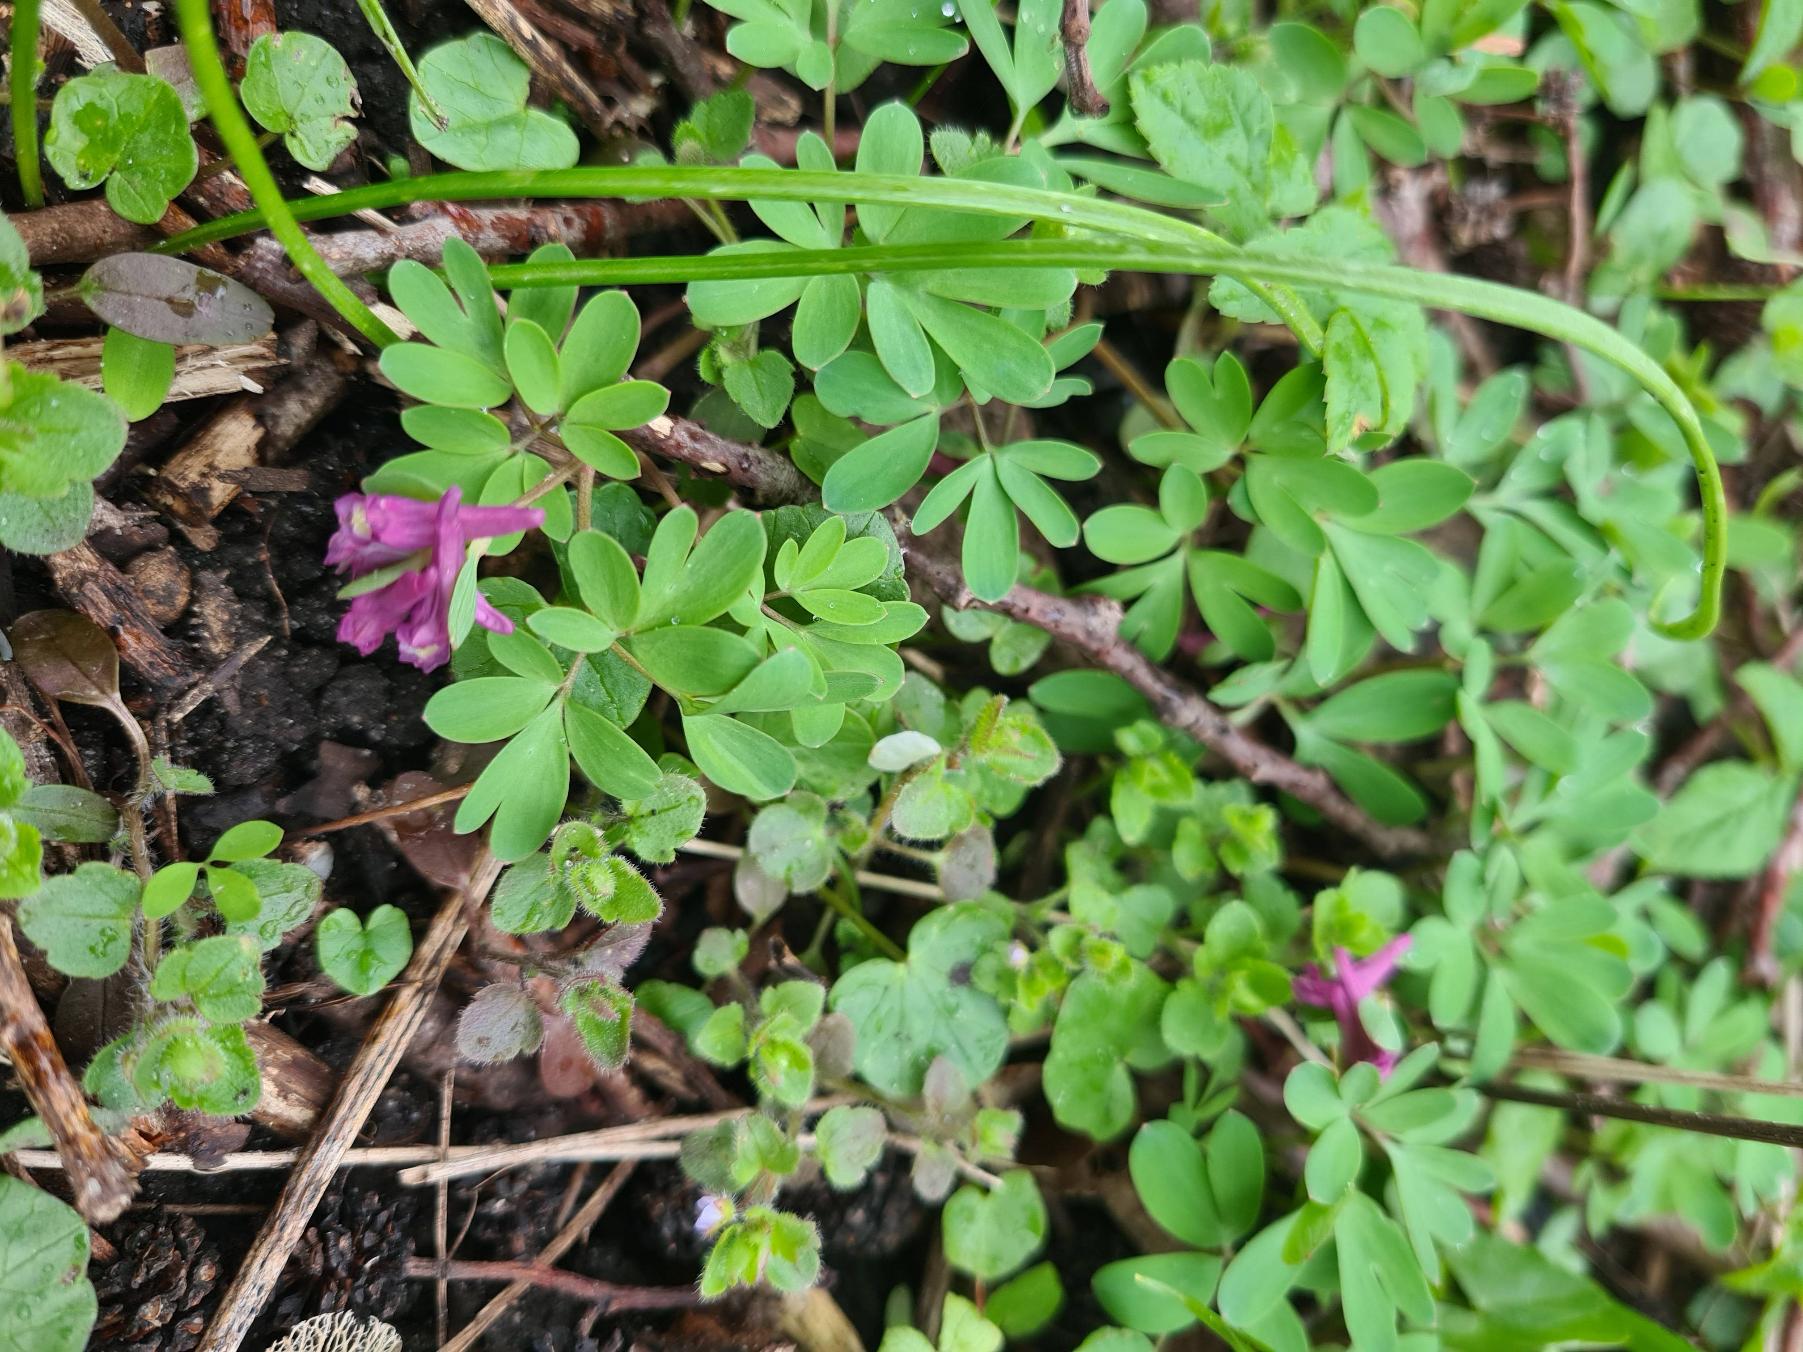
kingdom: Plantae
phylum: Tracheophyta
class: Magnoliopsida
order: Ranunculales
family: Papaveraceae
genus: Corydalis
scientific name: Corydalis intermedia
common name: Liden lærkespore
